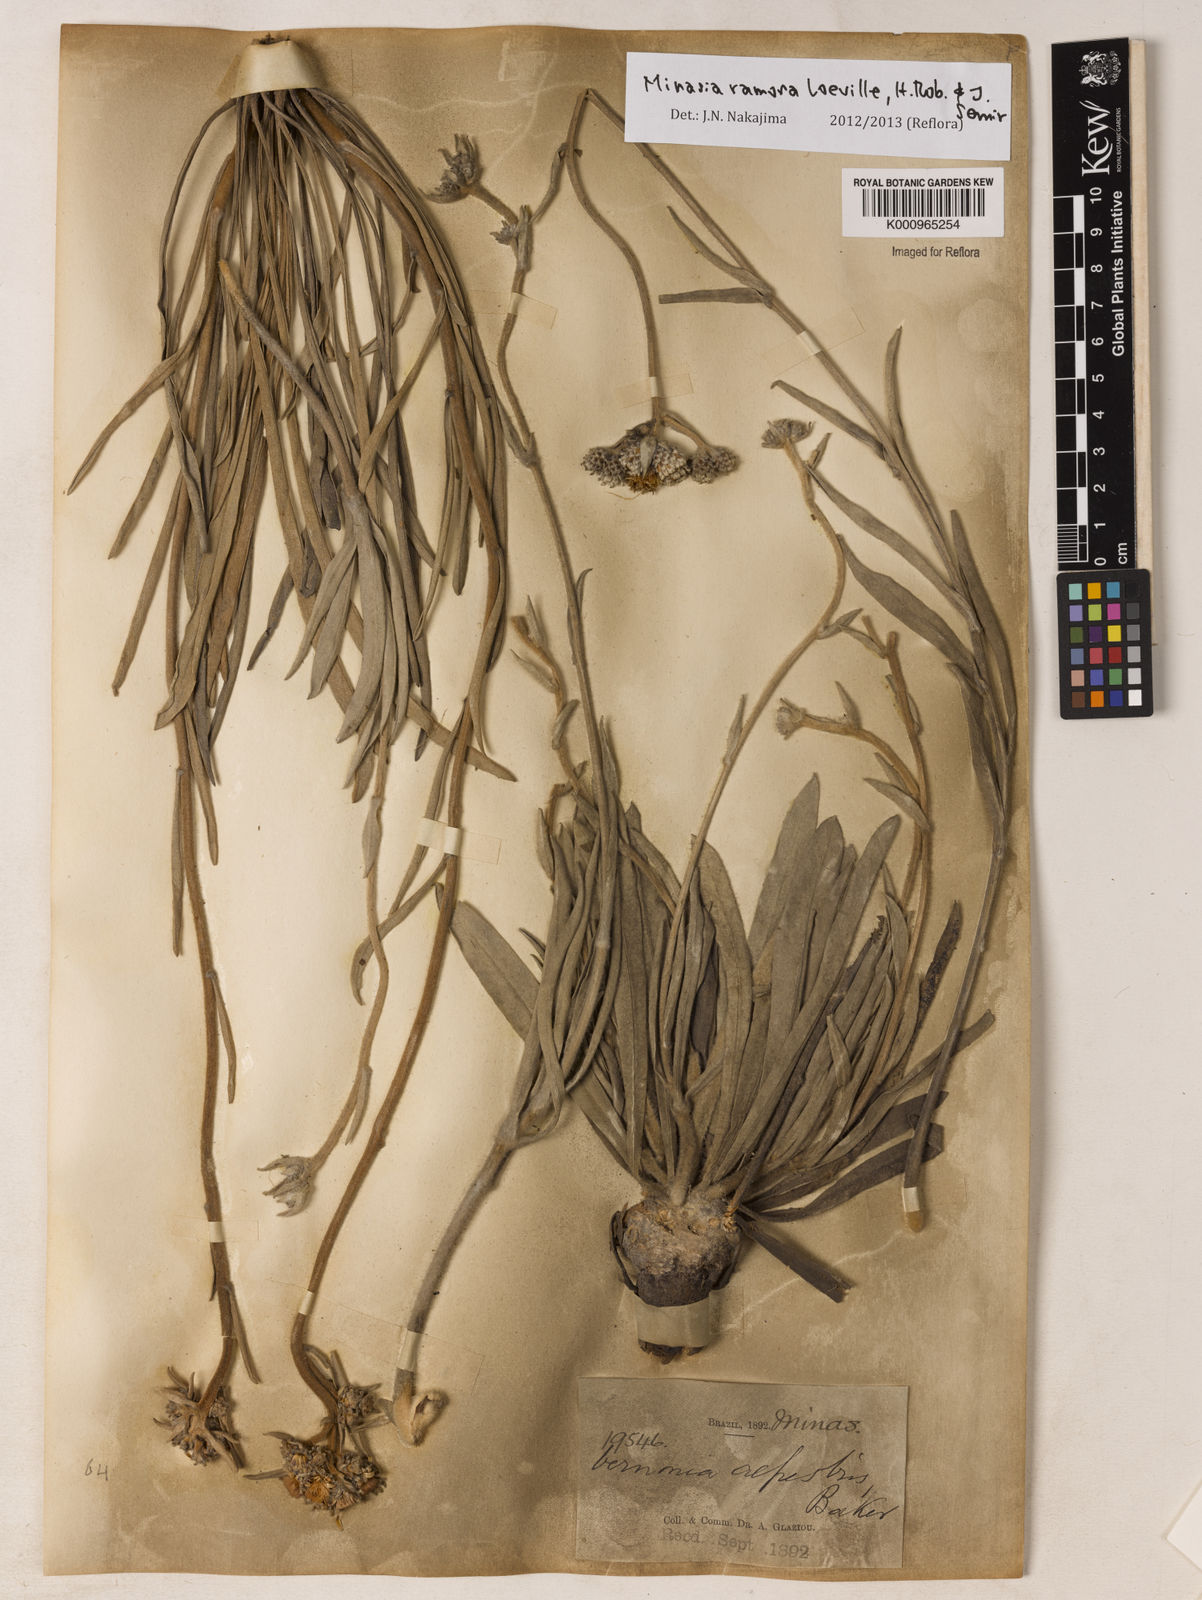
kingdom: Plantae
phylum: Tracheophyta
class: Magnoliopsida
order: Asterales
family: Asteraceae
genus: Minasia
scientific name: Minasia ramosa
